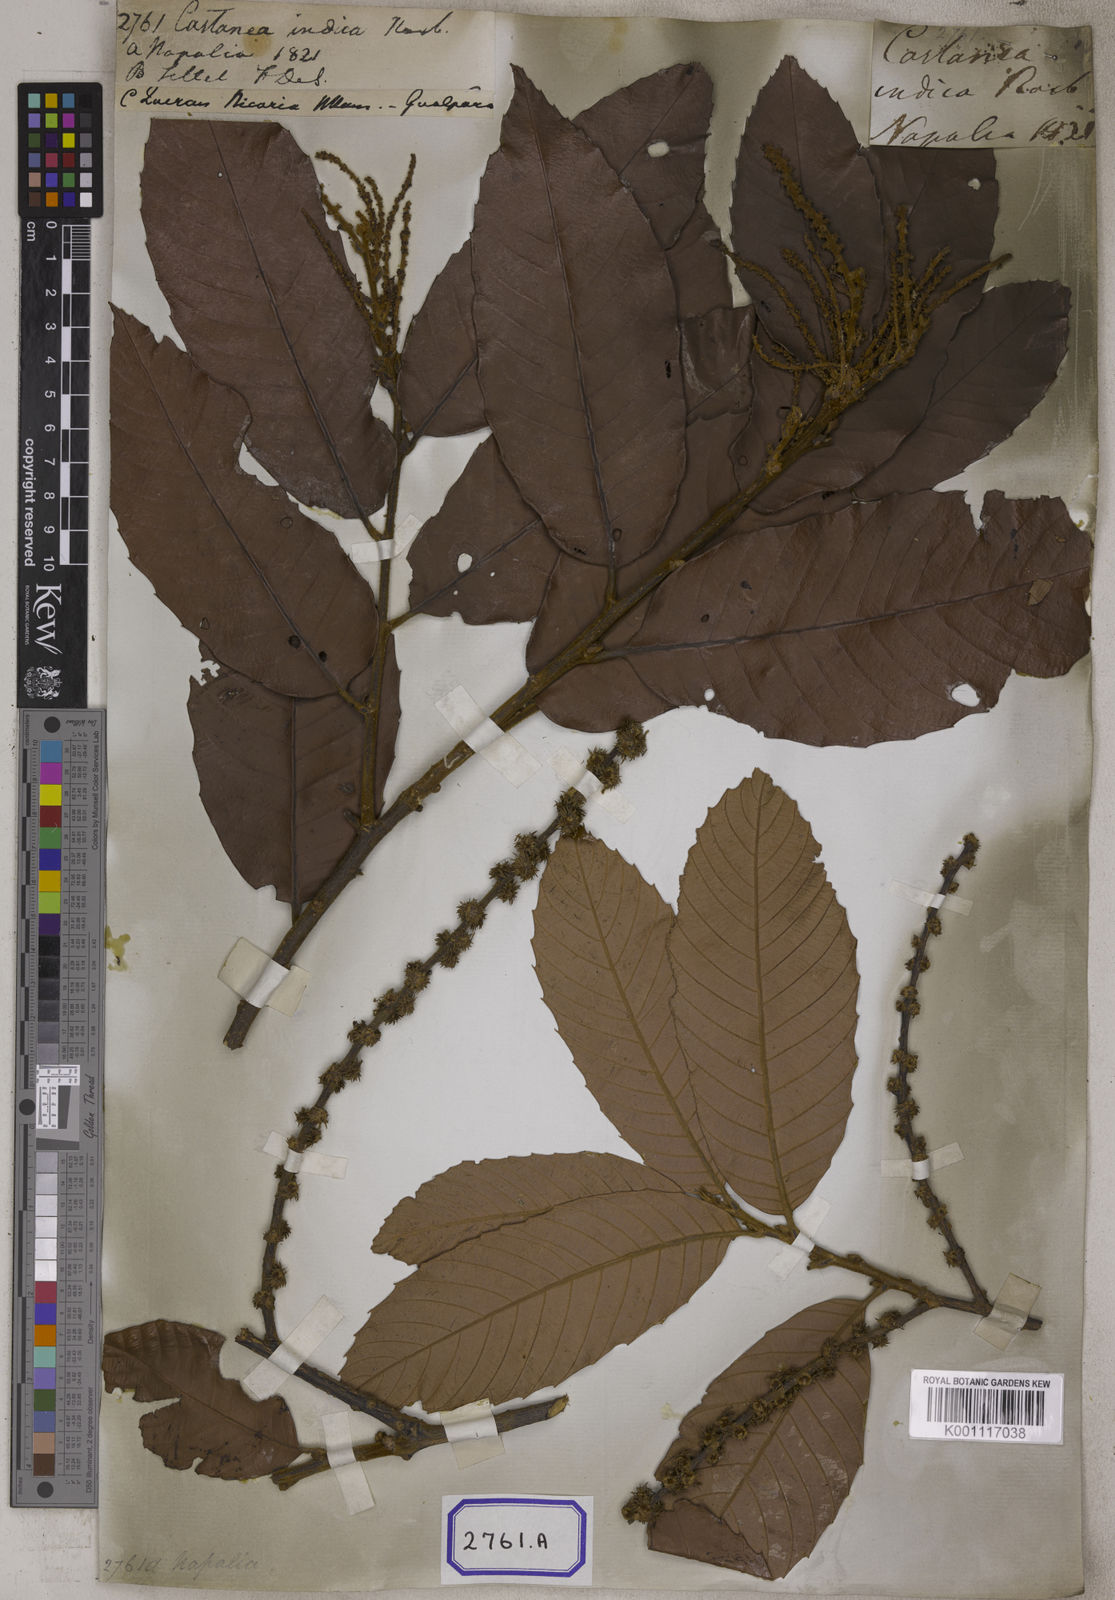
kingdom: Plantae
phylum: Tracheophyta
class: Magnoliopsida
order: Fagales
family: Fagaceae
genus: Castanopsis
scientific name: Castanopsis indica
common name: Indian-chestnut
